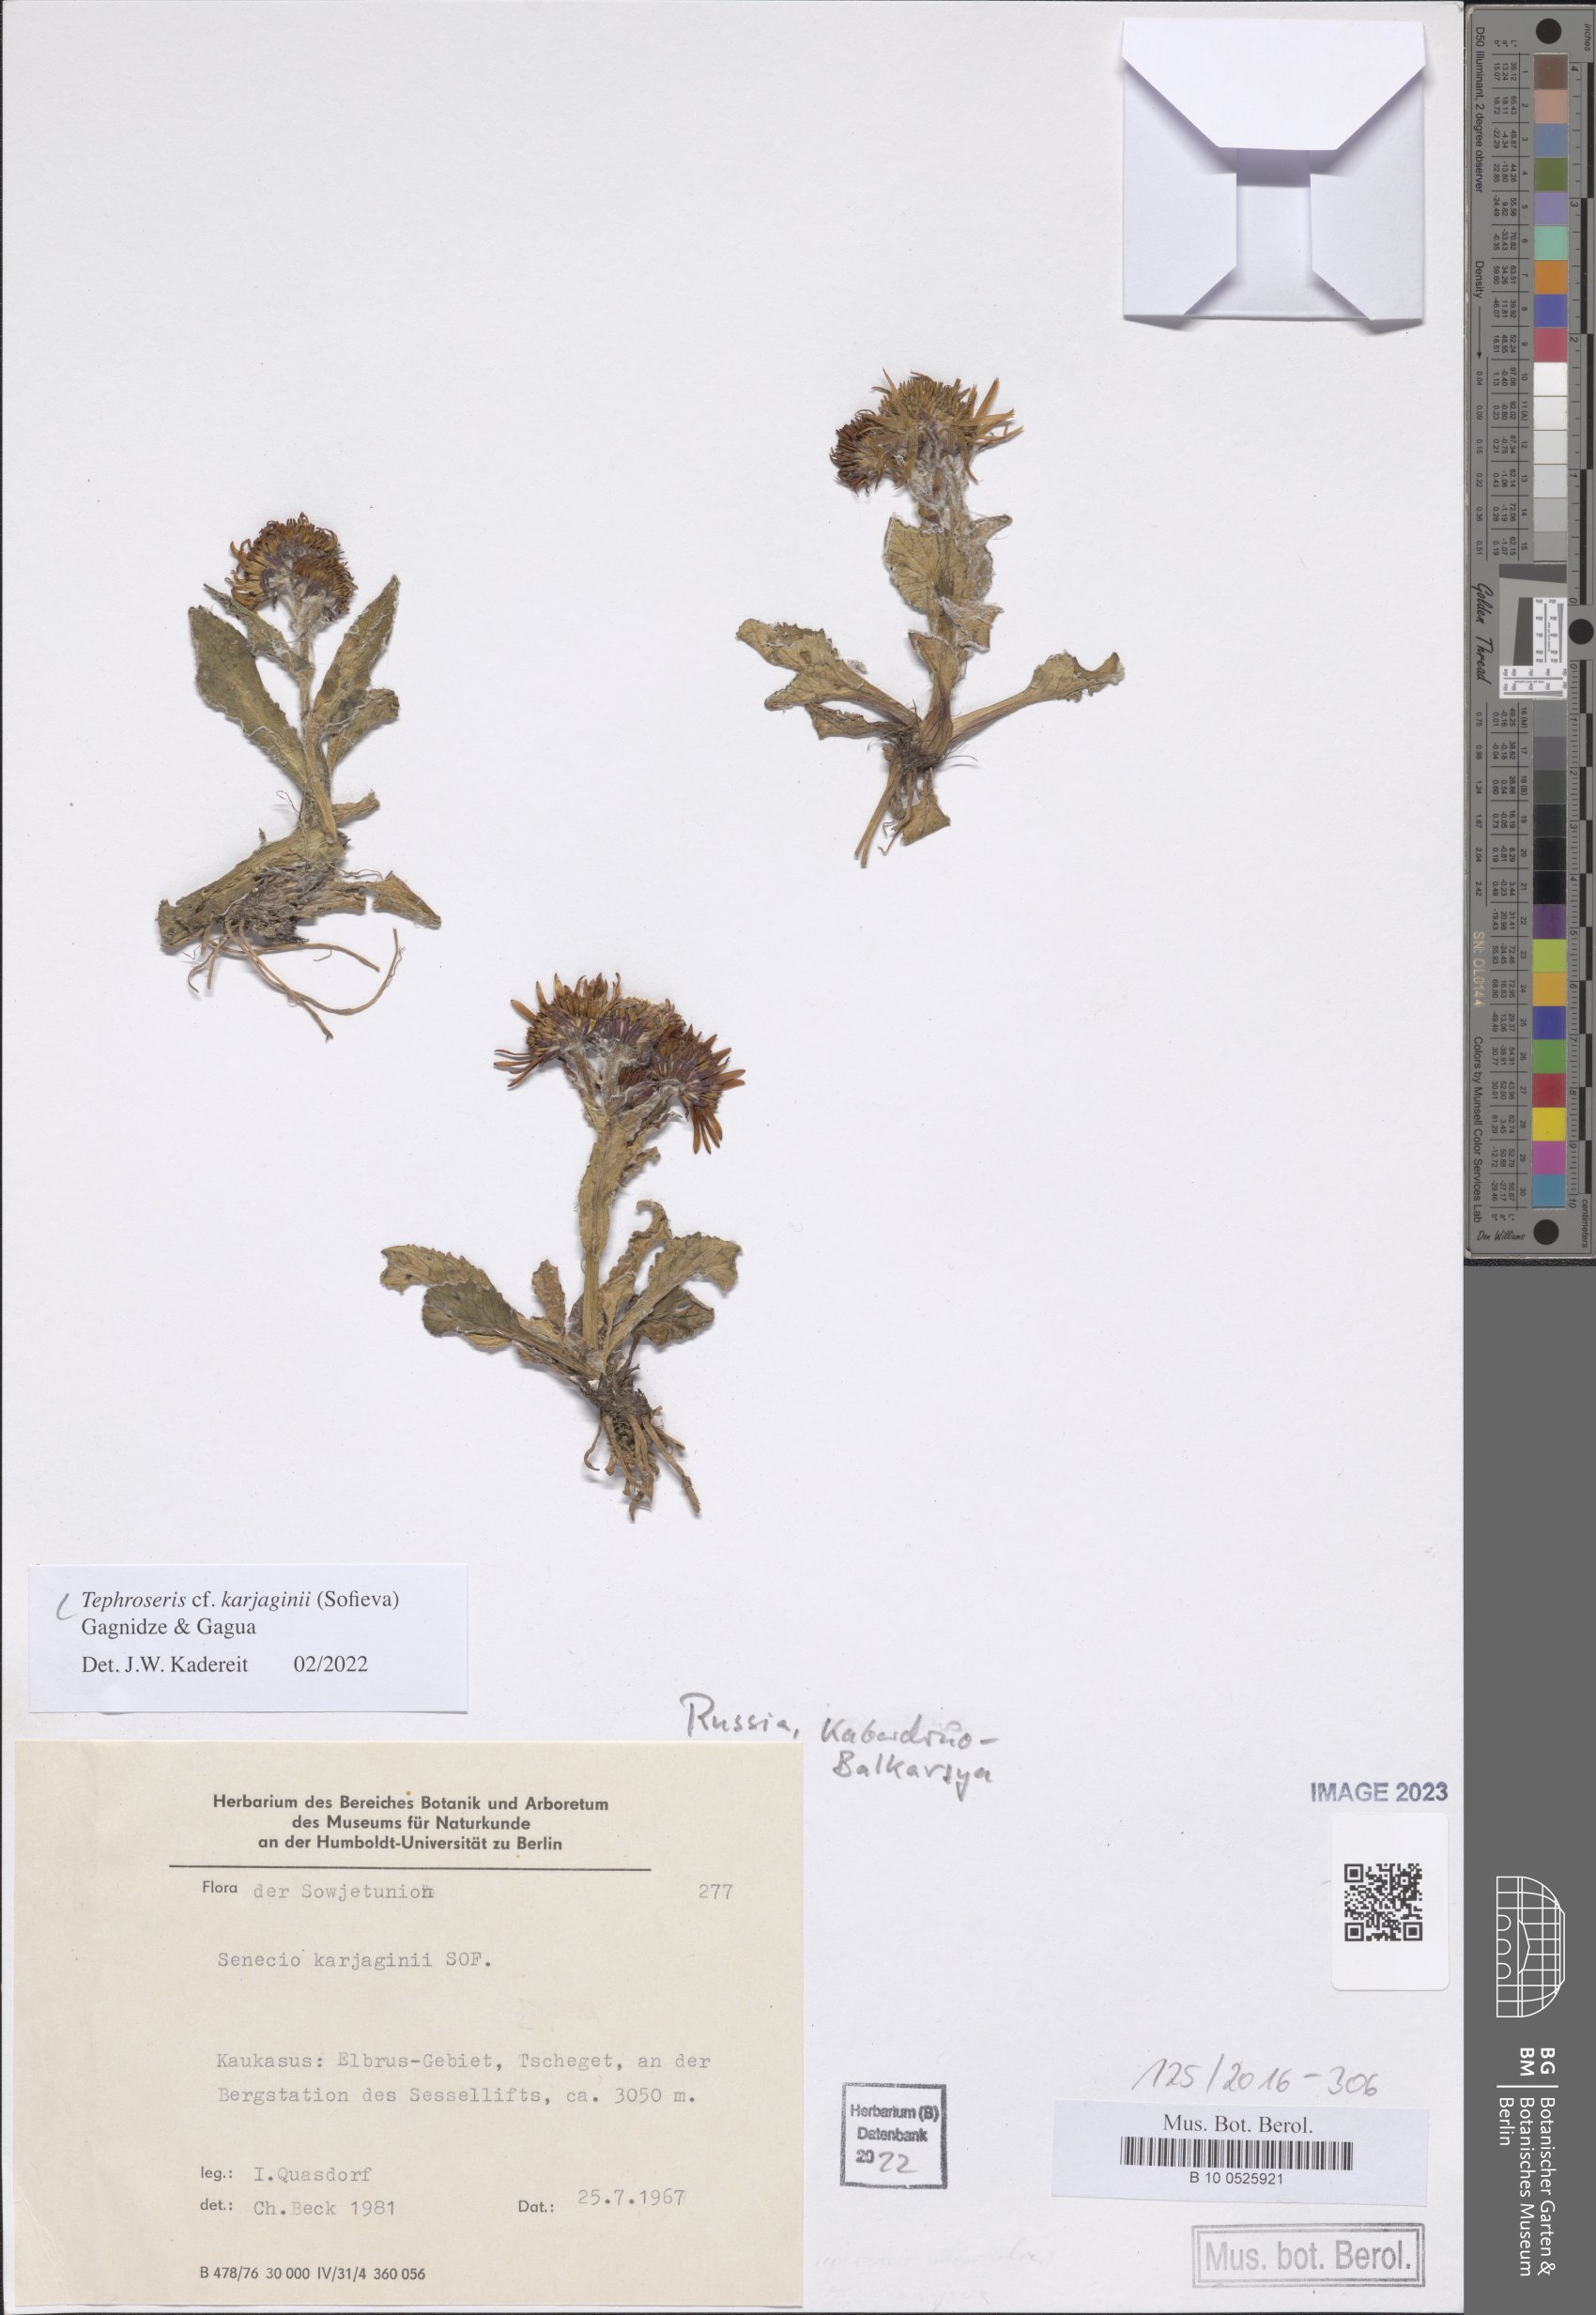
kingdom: Plantae
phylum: Tracheophyta
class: Magnoliopsida
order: Asterales
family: Asteraceae
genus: Tephroseris
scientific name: Tephroseris integrifolia
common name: Field fleawort
